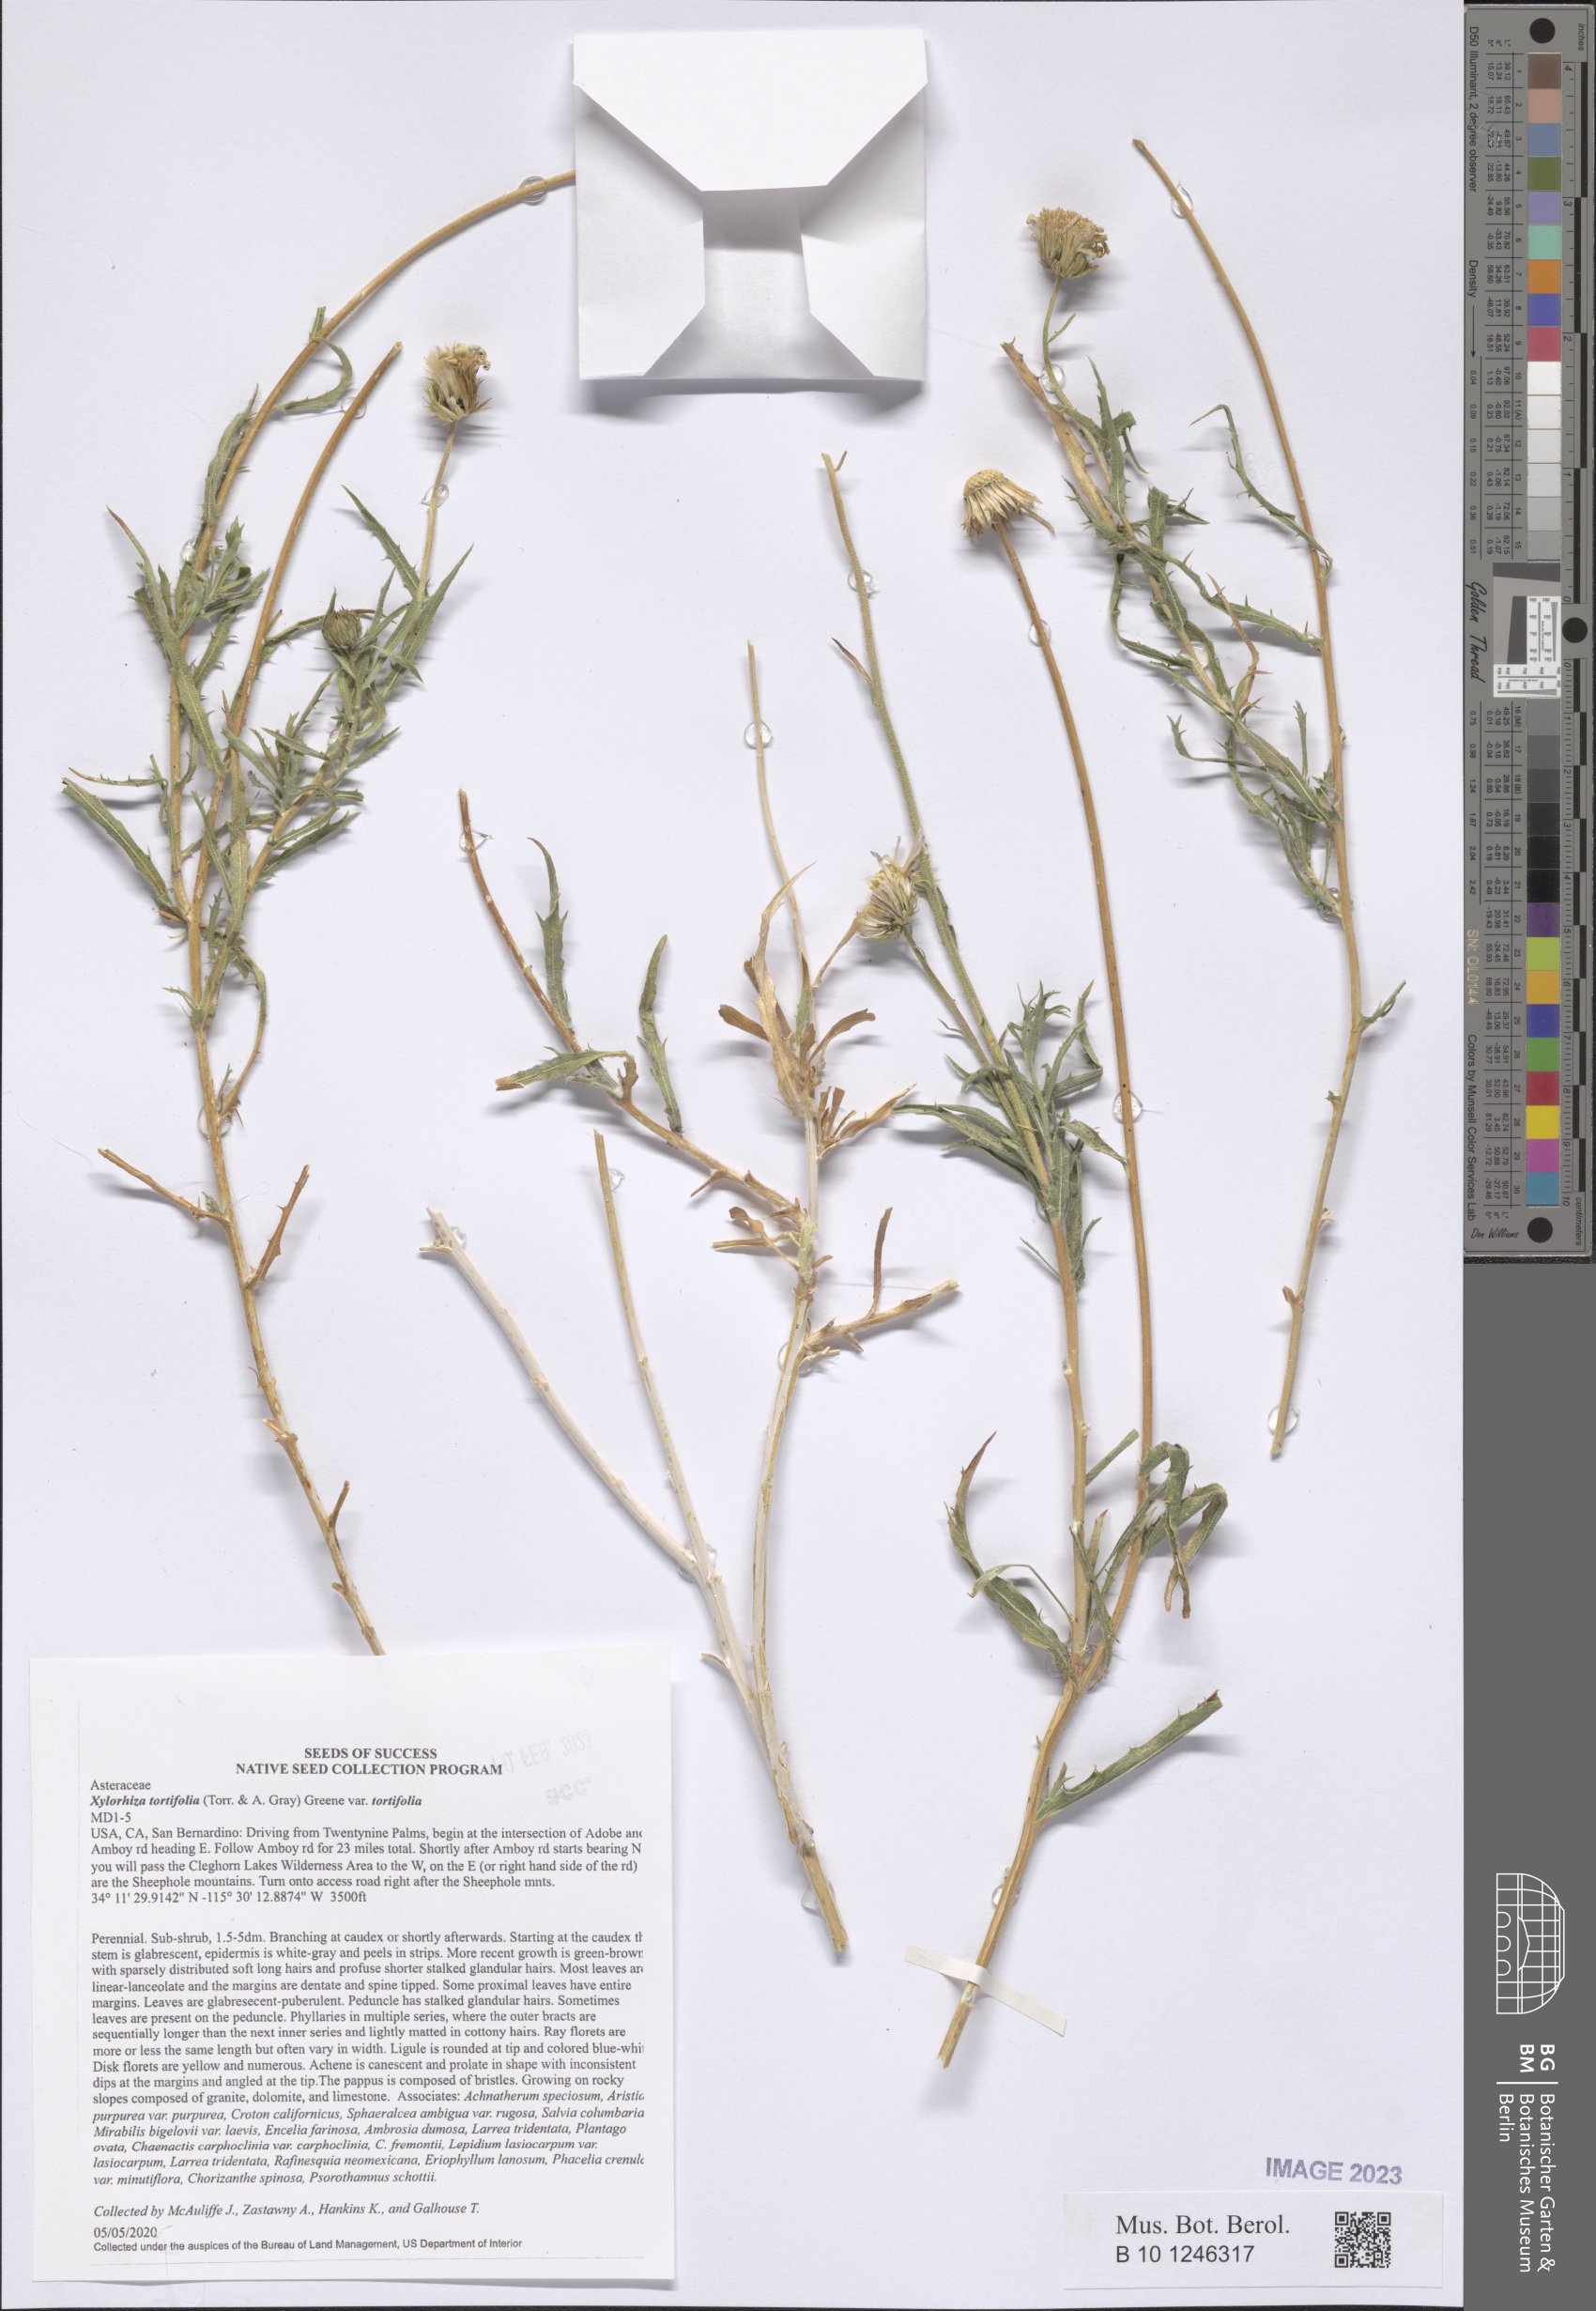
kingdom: Plantae
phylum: Tracheophyta
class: Magnoliopsida
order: Asterales
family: Asteraceae
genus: Xylorhiza
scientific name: Xylorhiza tortifolia
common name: Hurt-leaf woody-aster
